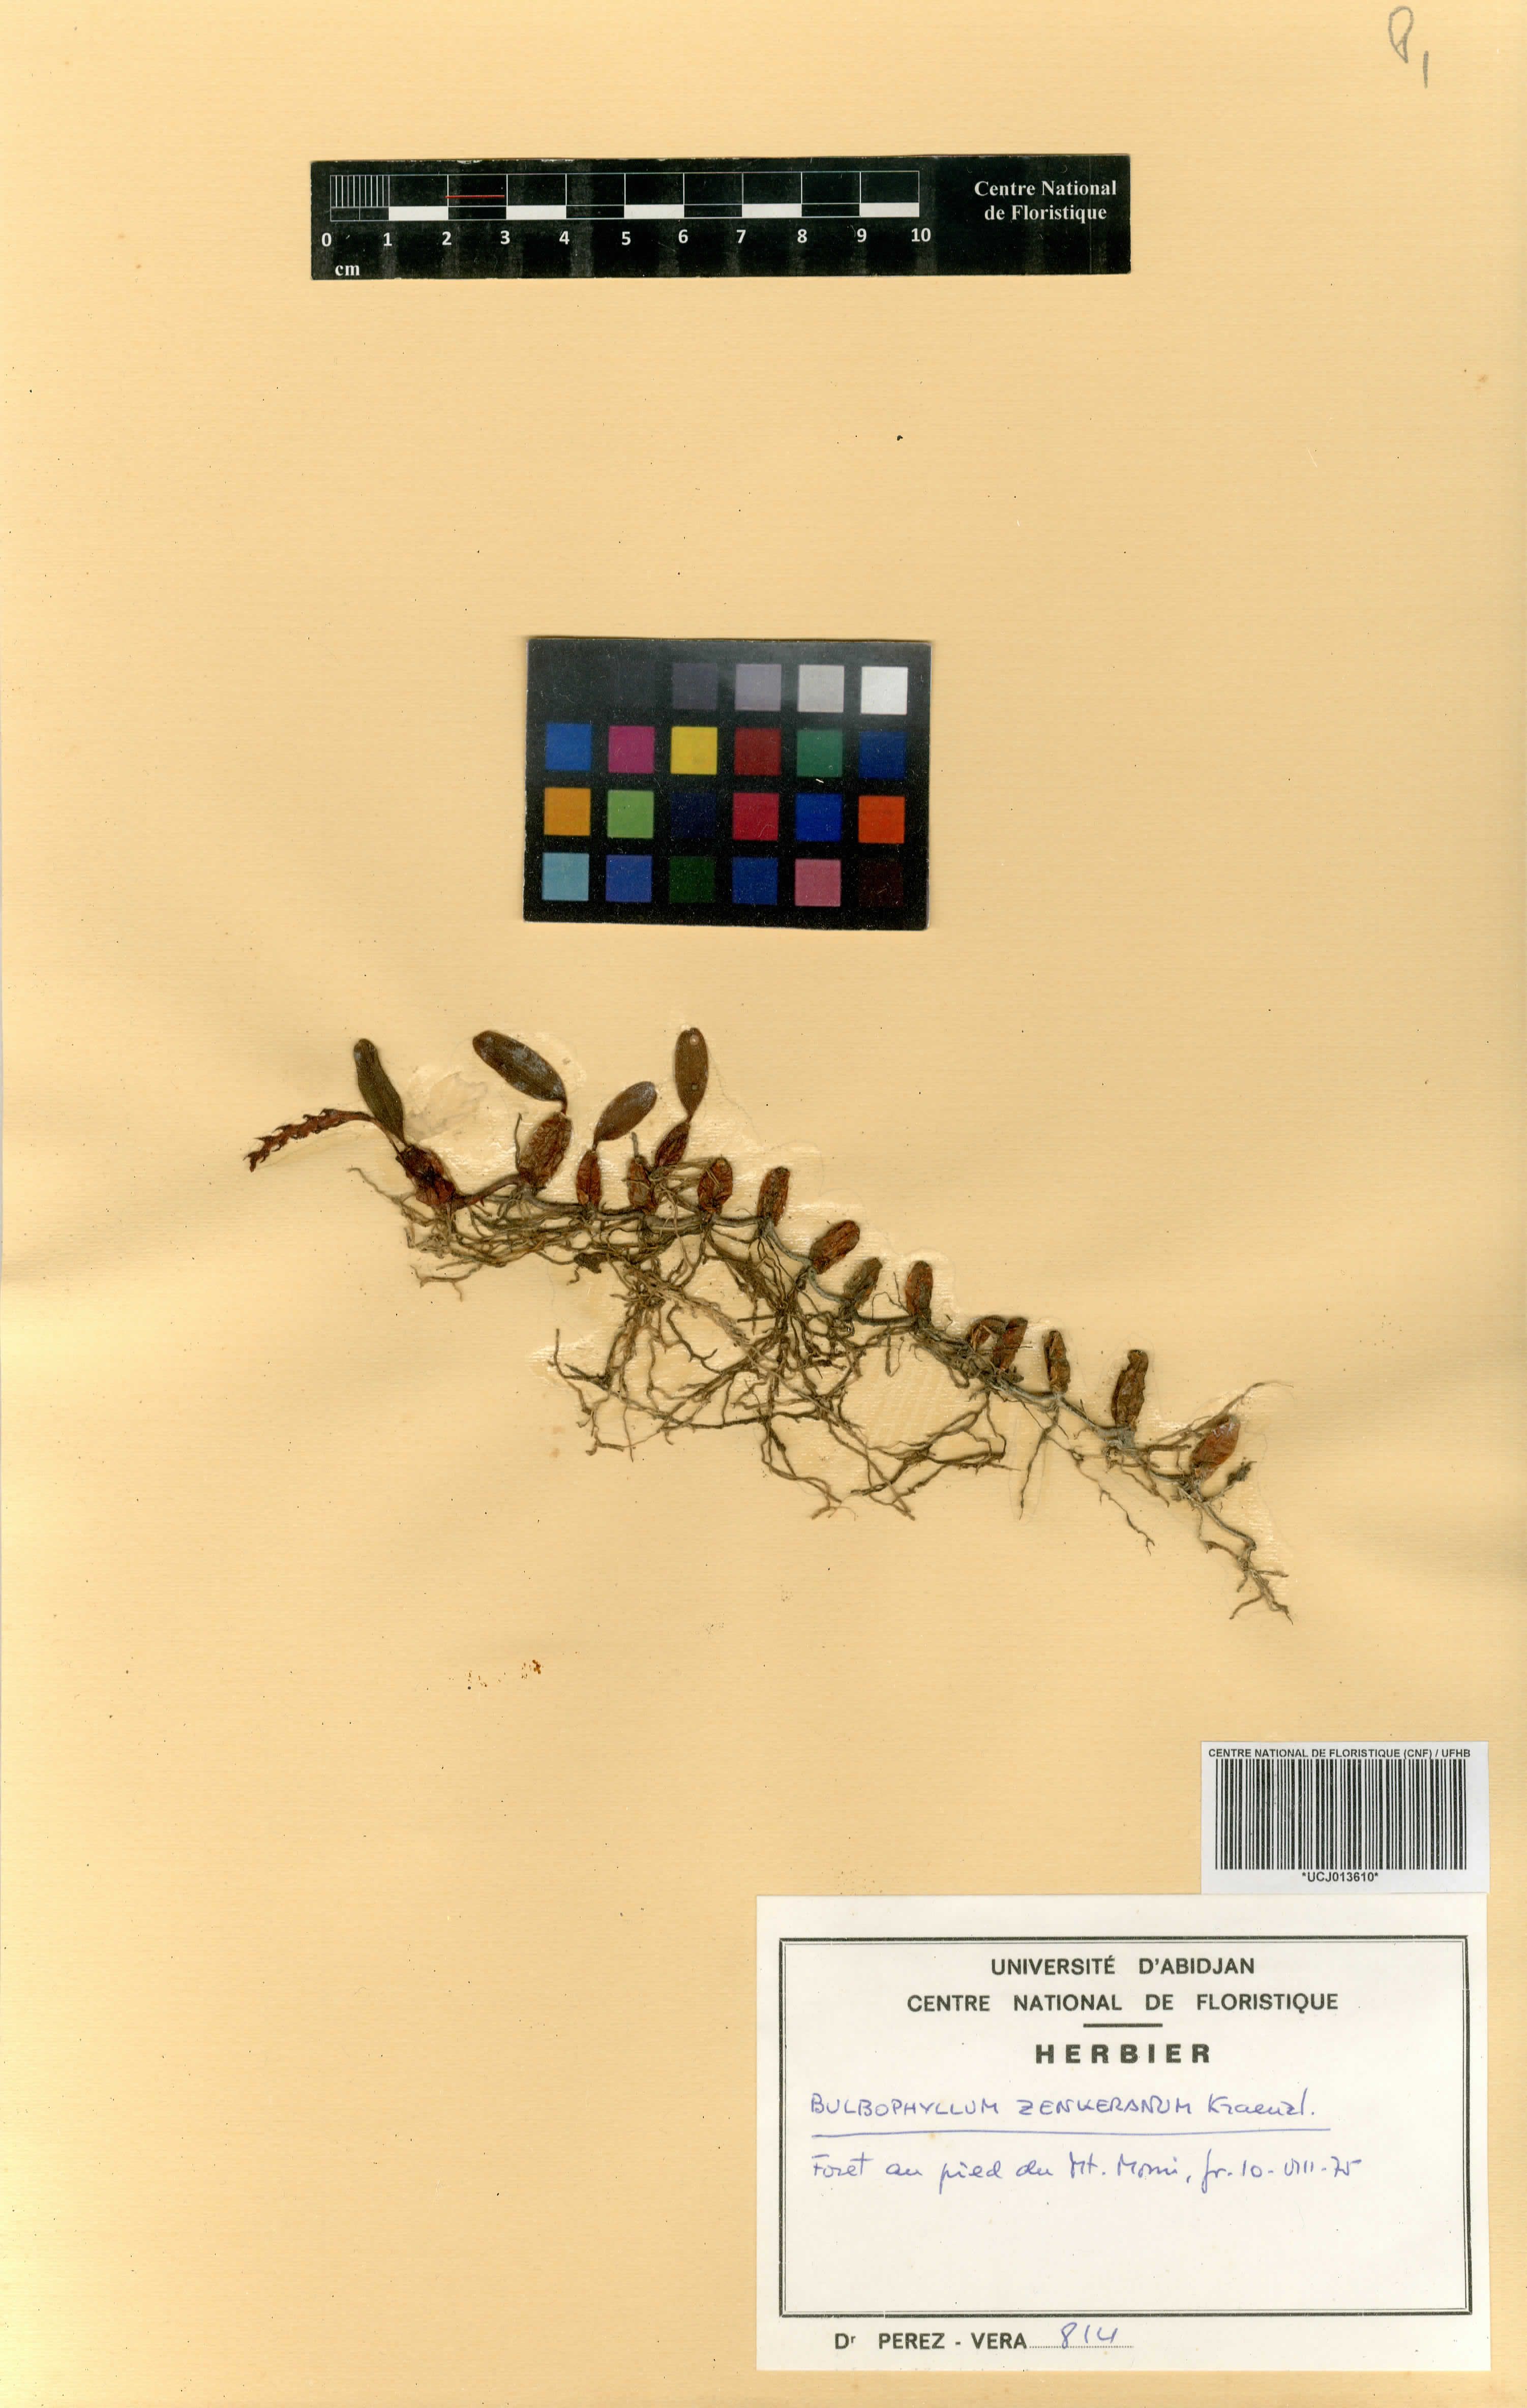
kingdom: Plantae
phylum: Tracheophyta
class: Liliopsida
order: Asparagales
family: Orchidaceae
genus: Bulbophyllum
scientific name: Bulbophyllum oreonastes
